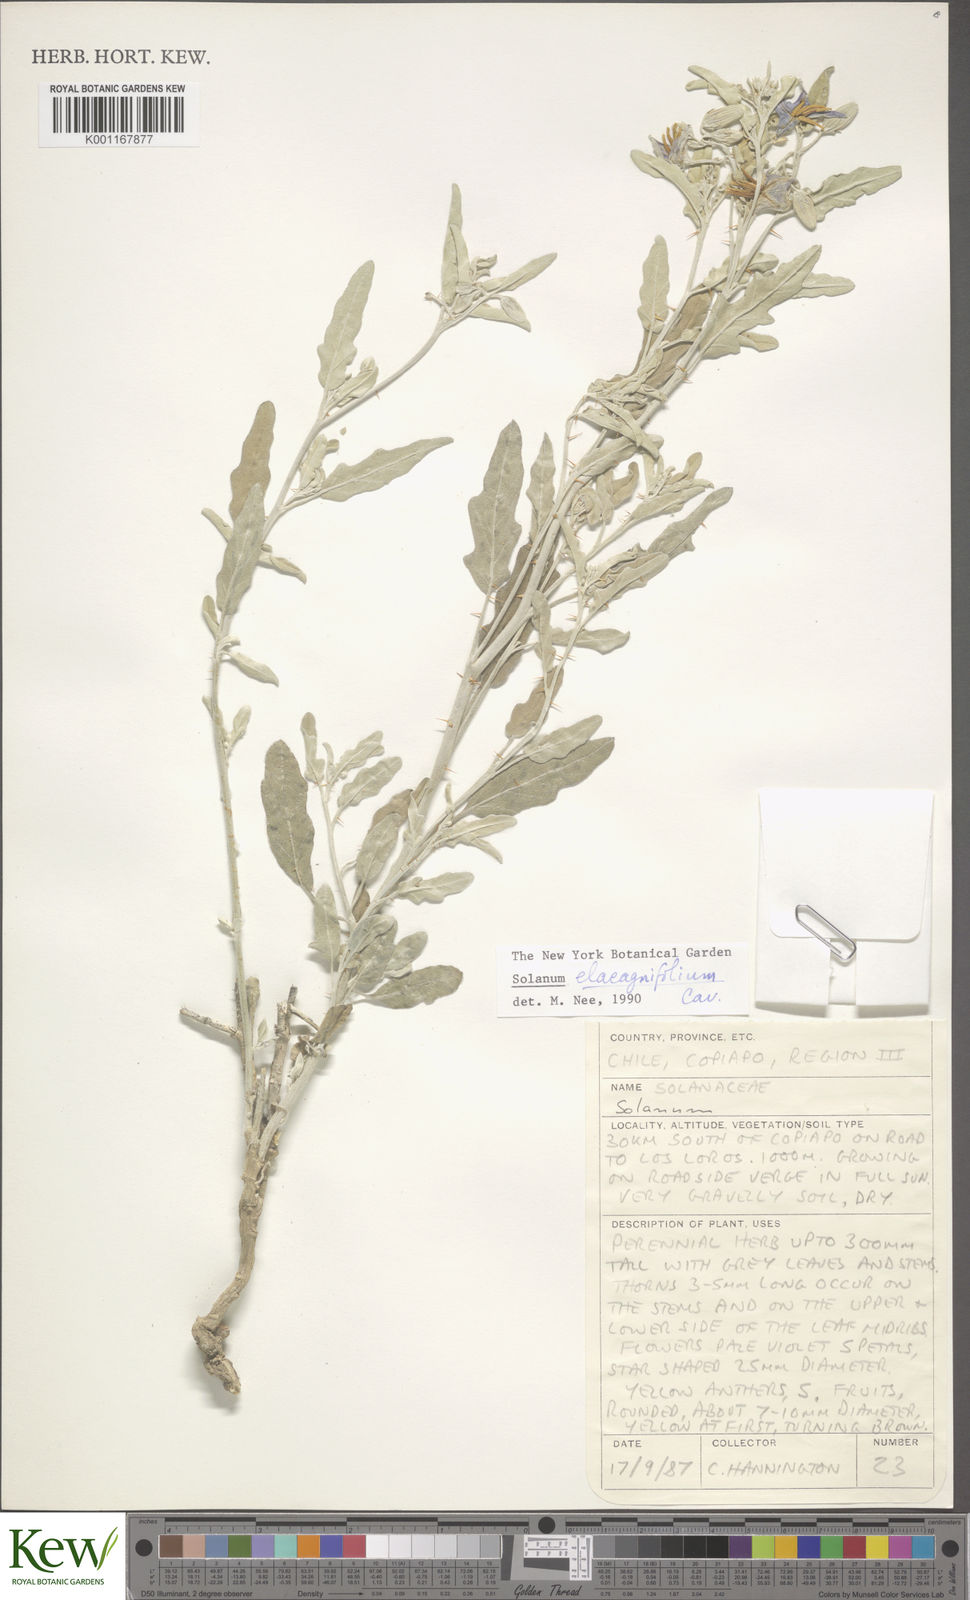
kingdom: Plantae
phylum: Tracheophyta
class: Magnoliopsida
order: Solanales
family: Solanaceae
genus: Solanum
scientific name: Solanum elaeagnifolium
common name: Silverleaf nightshade
